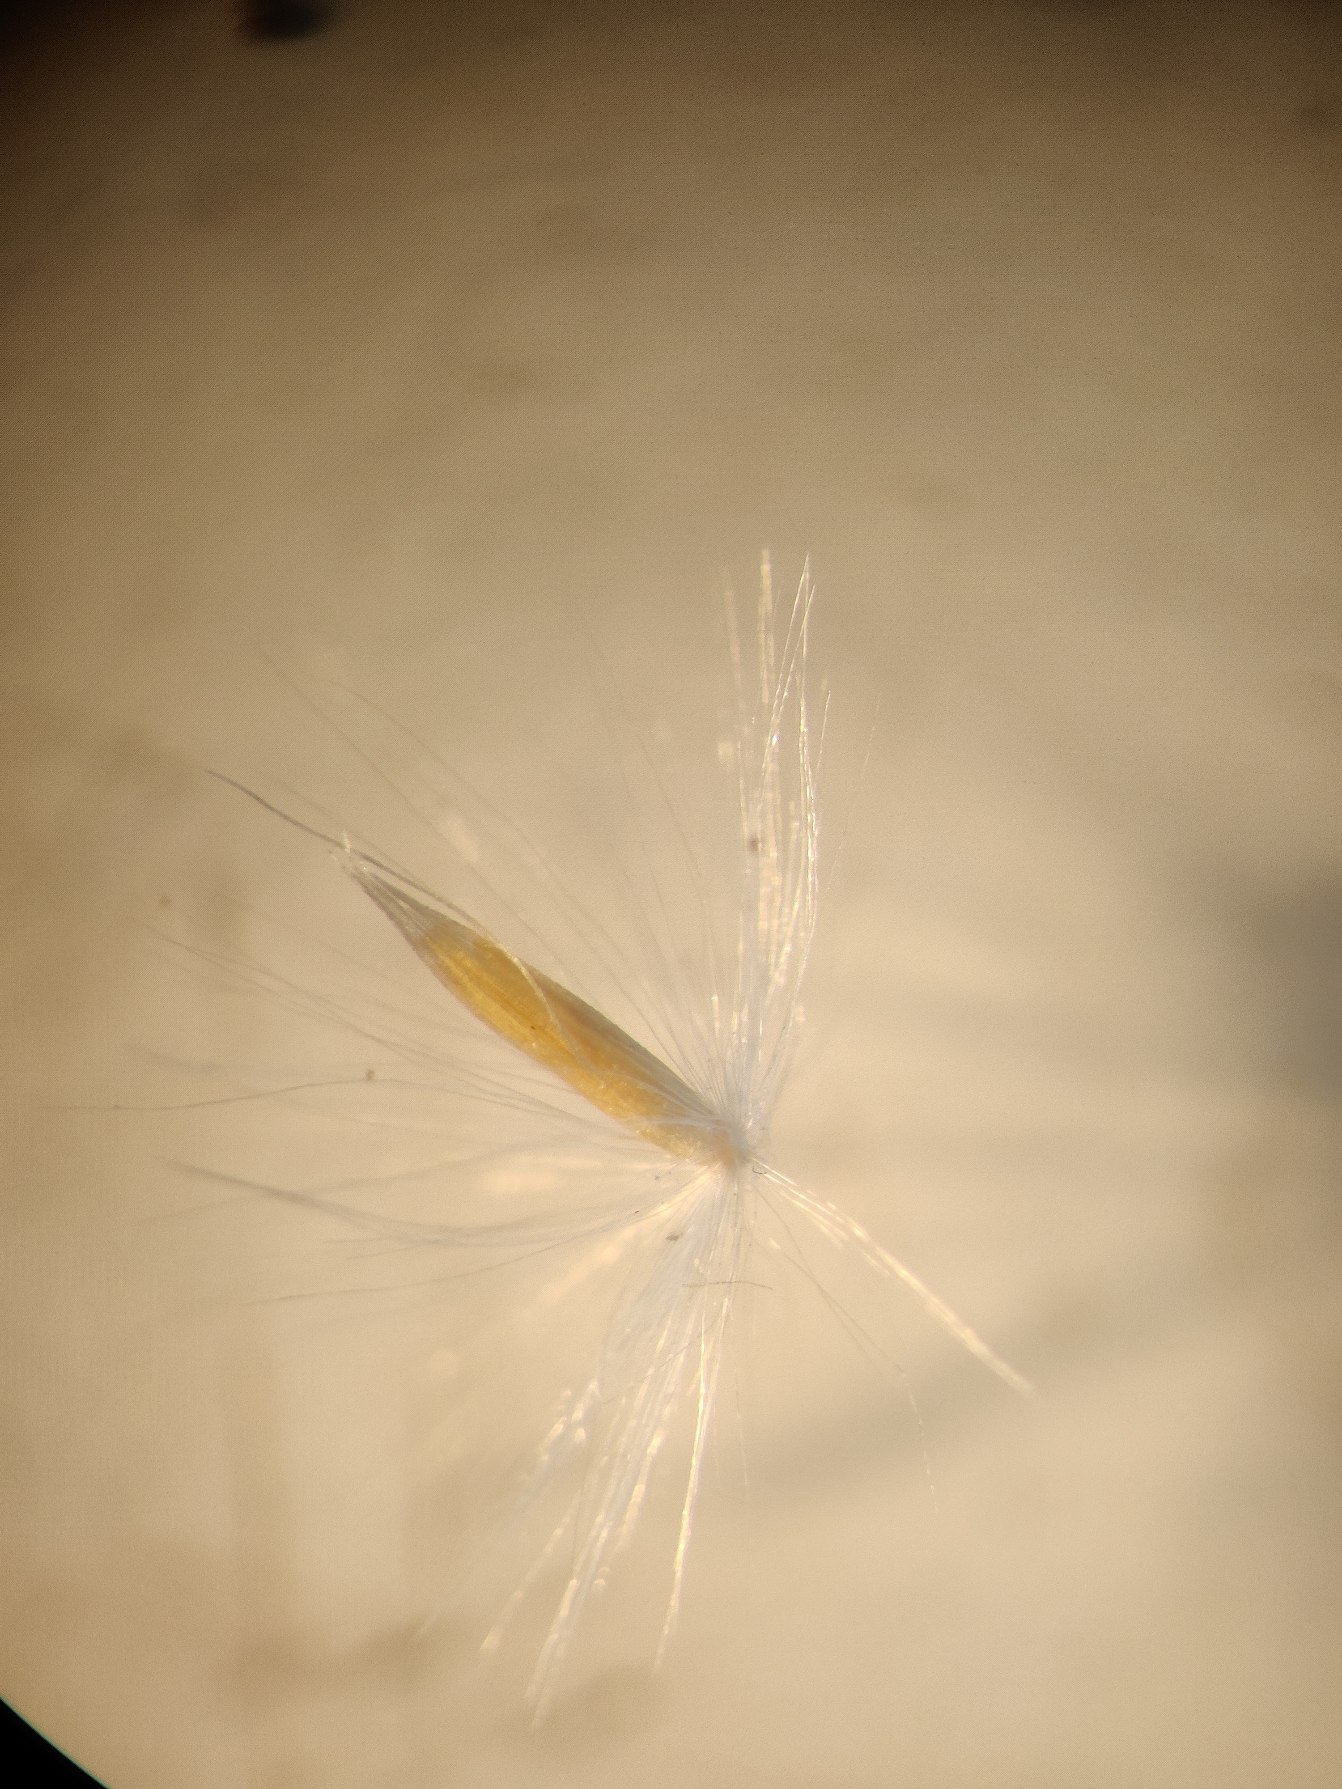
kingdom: Plantae
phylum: Tracheophyta
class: Liliopsida
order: Poales
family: Poaceae
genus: Calamagrostis
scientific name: Calamagrostis epigejos
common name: Bjerg-rørhvene
